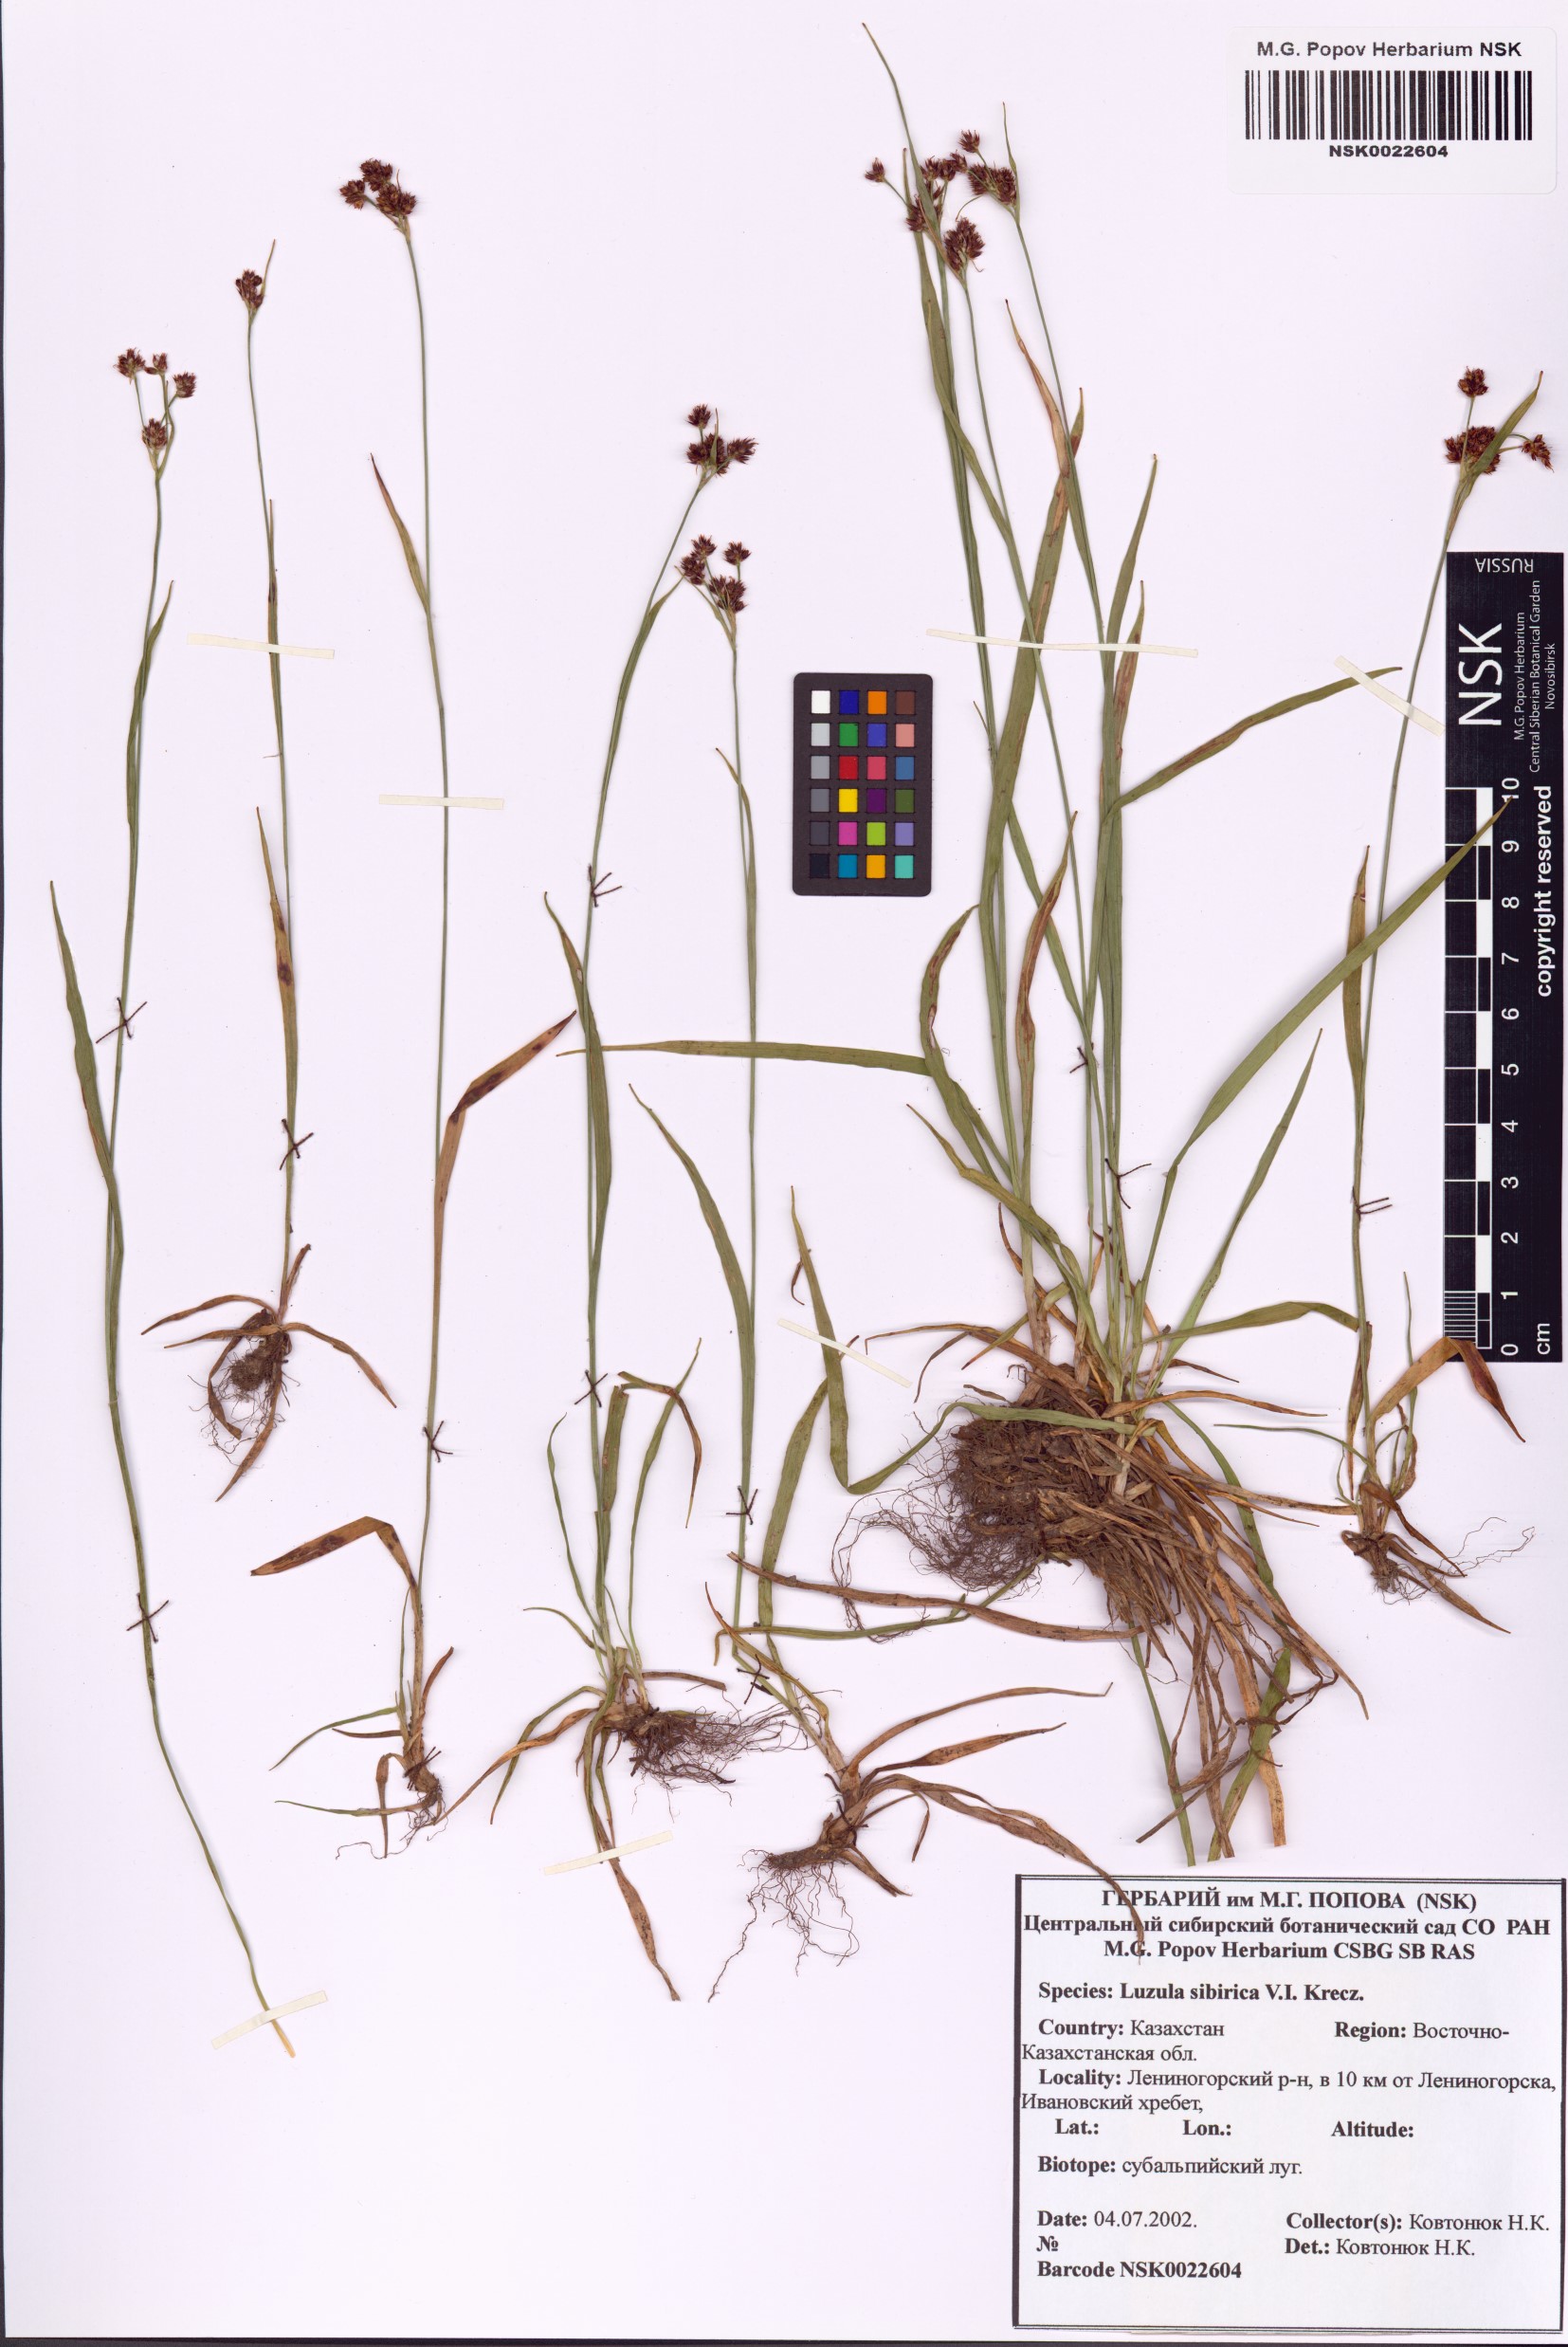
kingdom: Plantae
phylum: Tracheophyta
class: Liliopsida
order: Poales
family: Juncaceae
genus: Luzula
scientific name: Luzula multiflora
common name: Heath wood-rush
